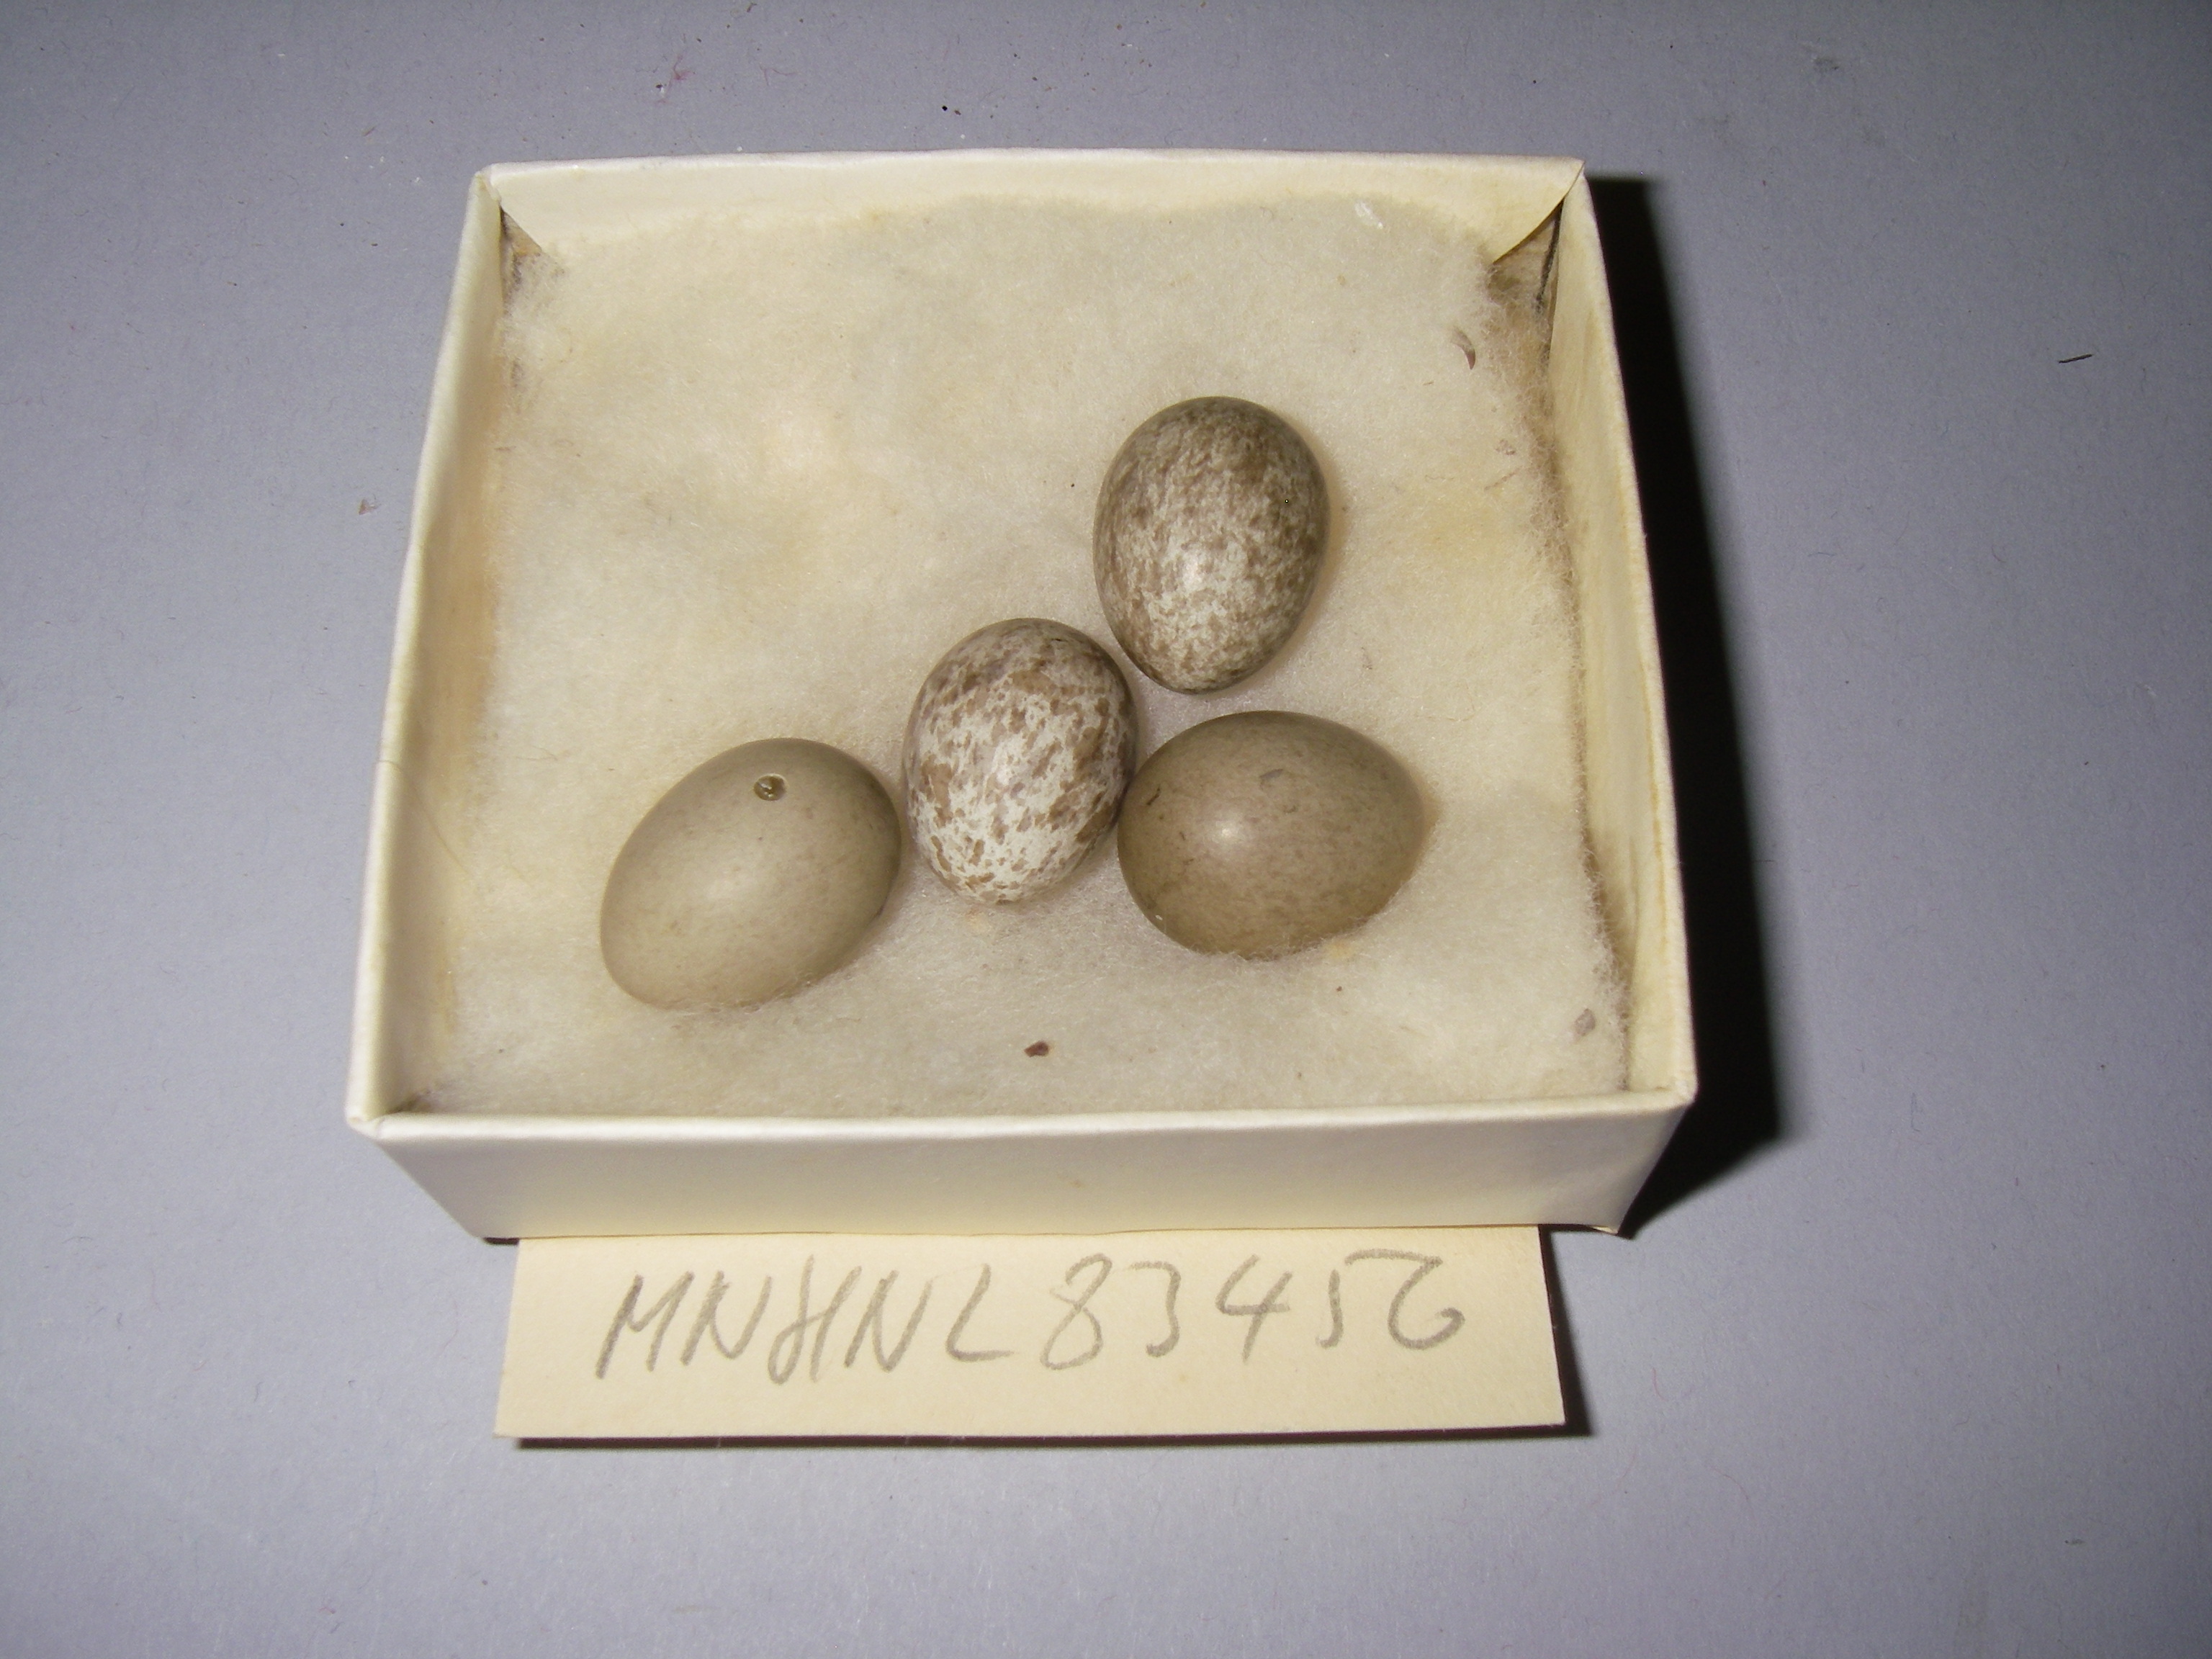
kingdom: Animalia
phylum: Chordata
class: Aves
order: Passeriformes
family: Passeridae
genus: Passer
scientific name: Passer montanus
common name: Eurasian tree sparrow
